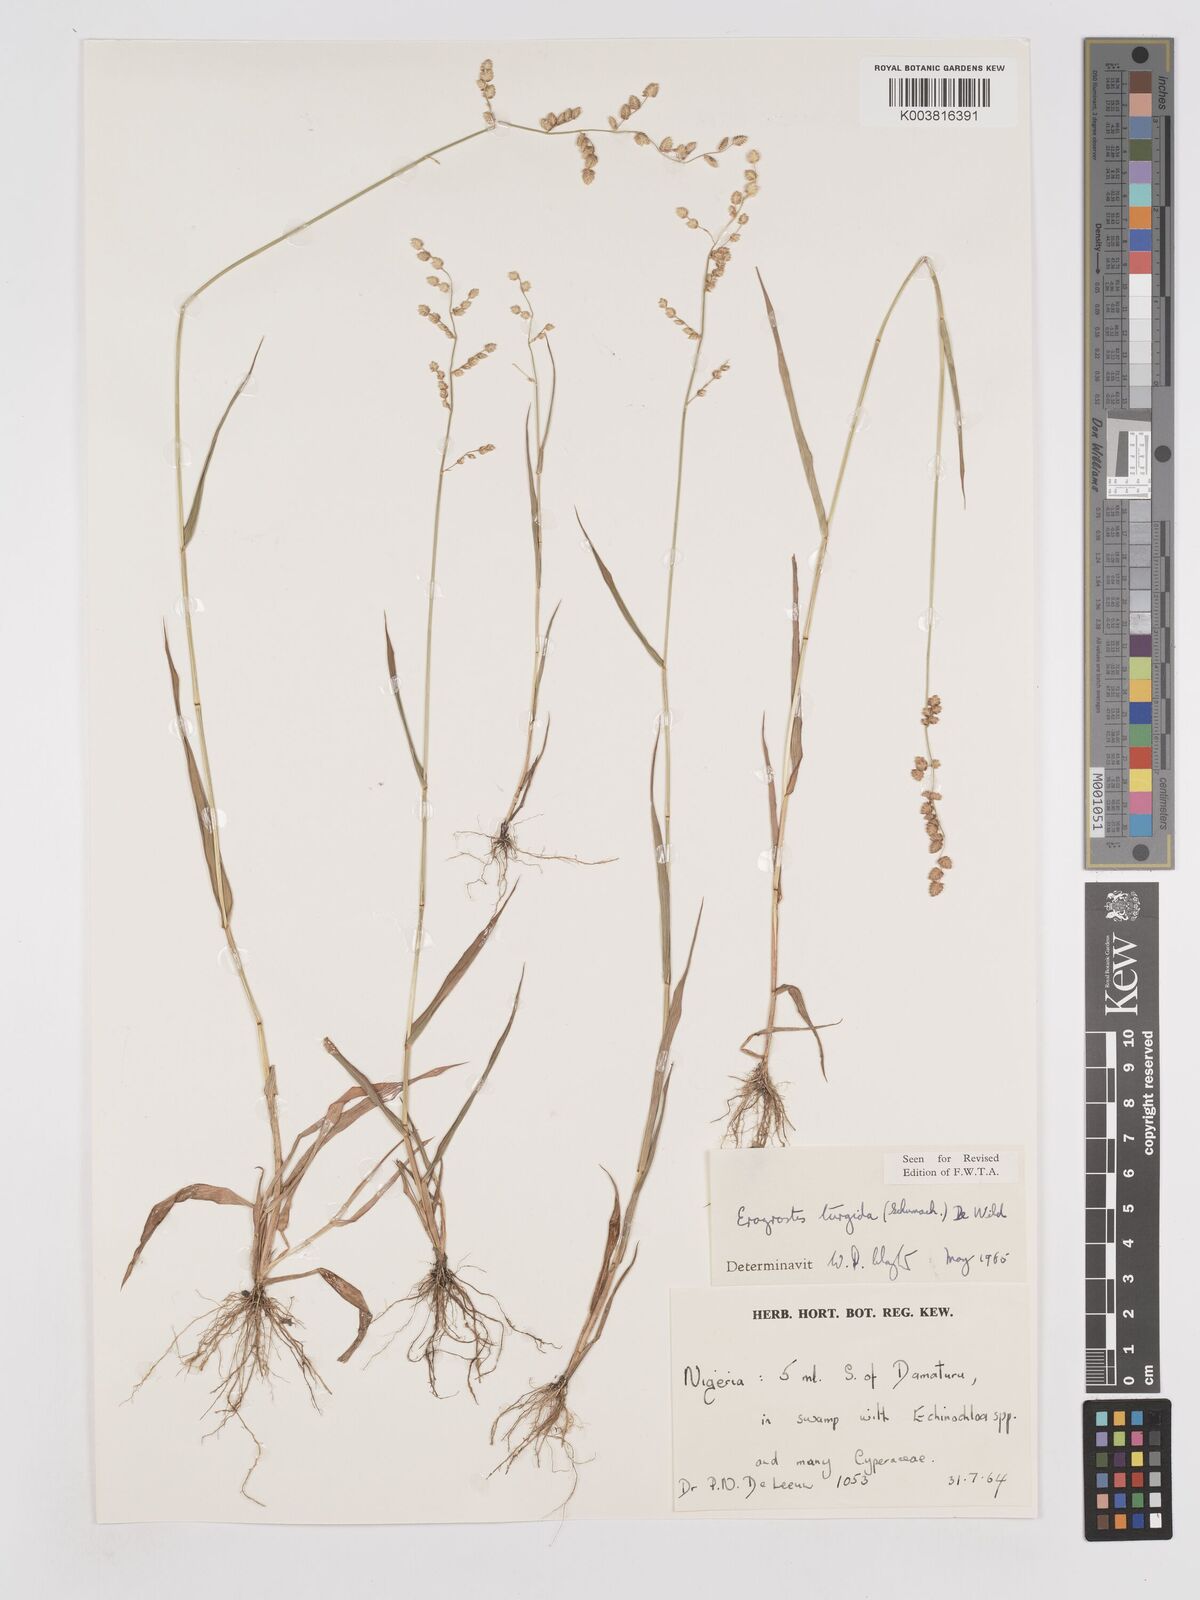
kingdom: Plantae
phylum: Tracheophyta
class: Liliopsida
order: Poales
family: Poaceae
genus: Eragrostis
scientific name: Eragrostis turgida
